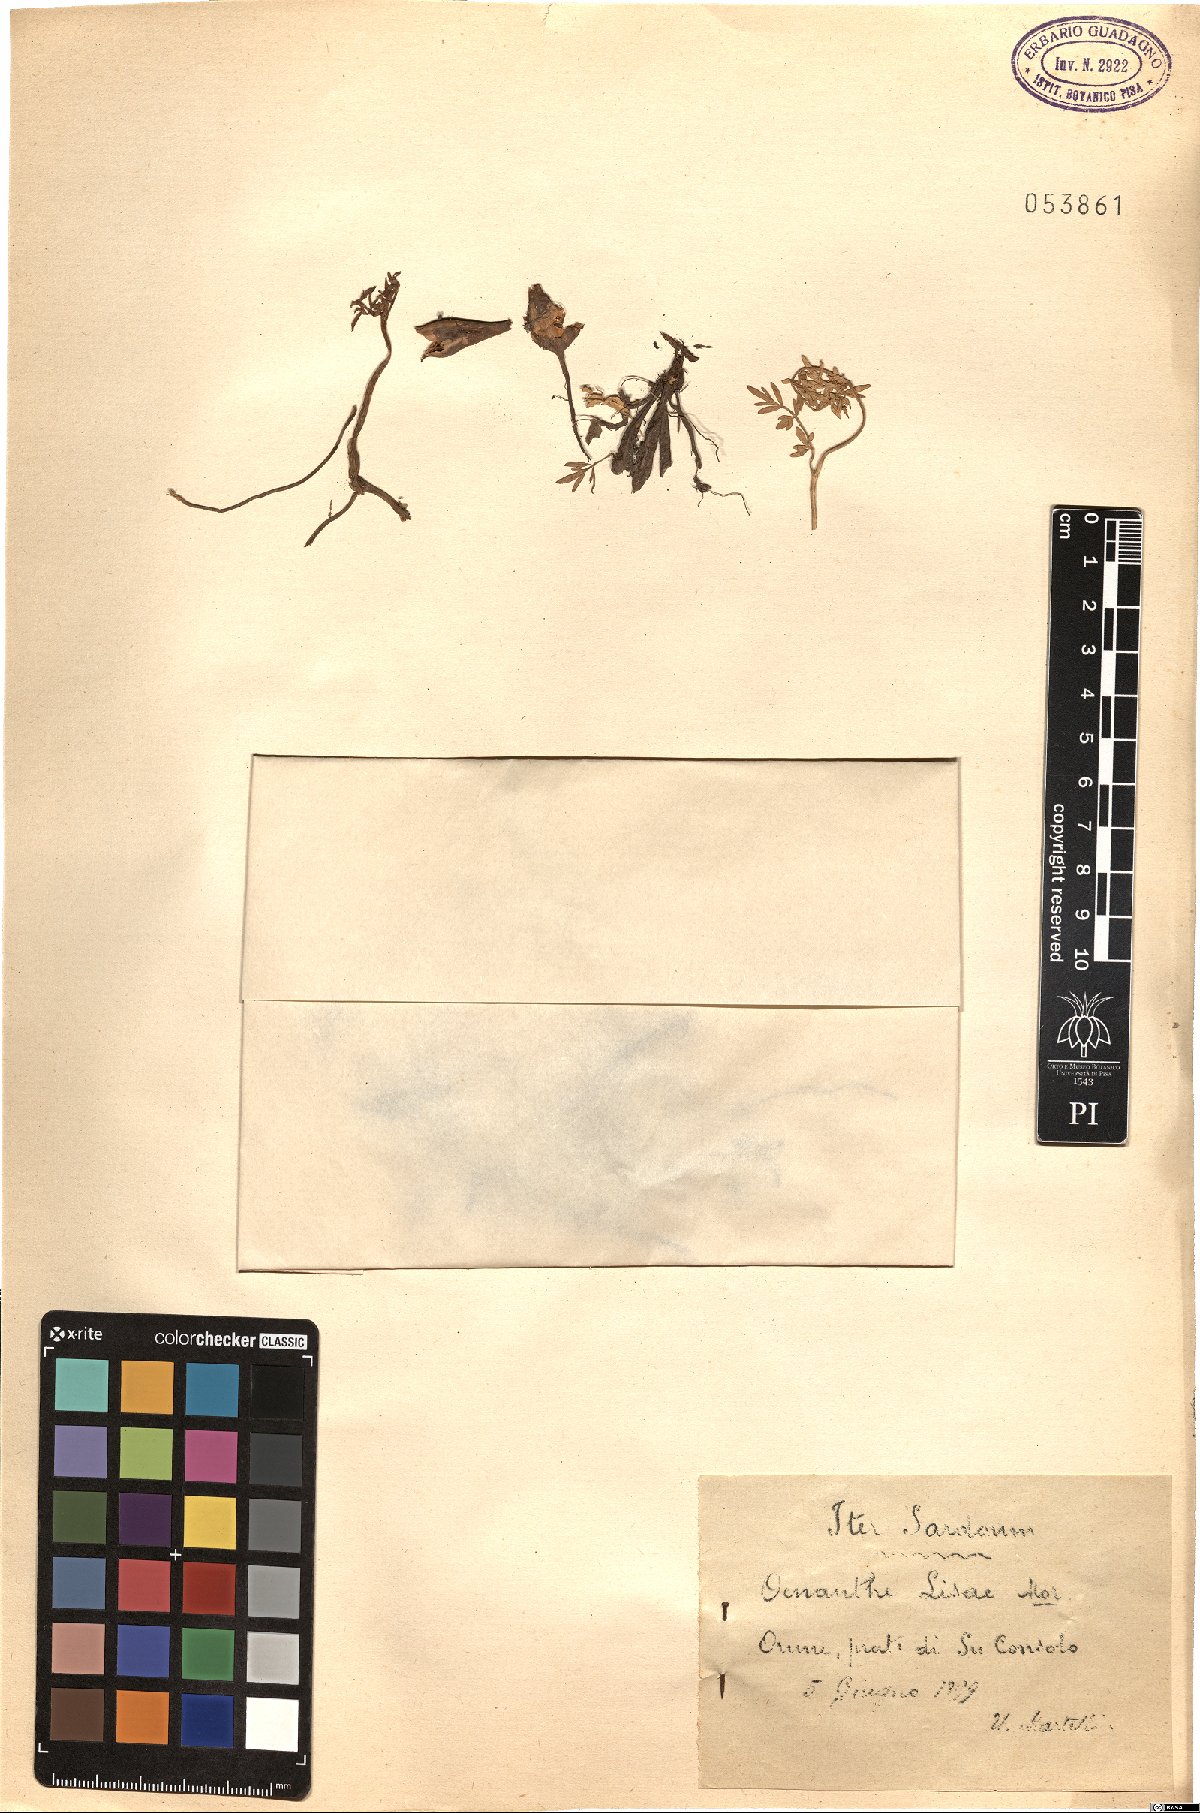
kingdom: Plantae
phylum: Tracheophyta
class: Magnoliopsida
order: Apiales
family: Apiaceae
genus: Oenanthe
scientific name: Oenanthe lisae
